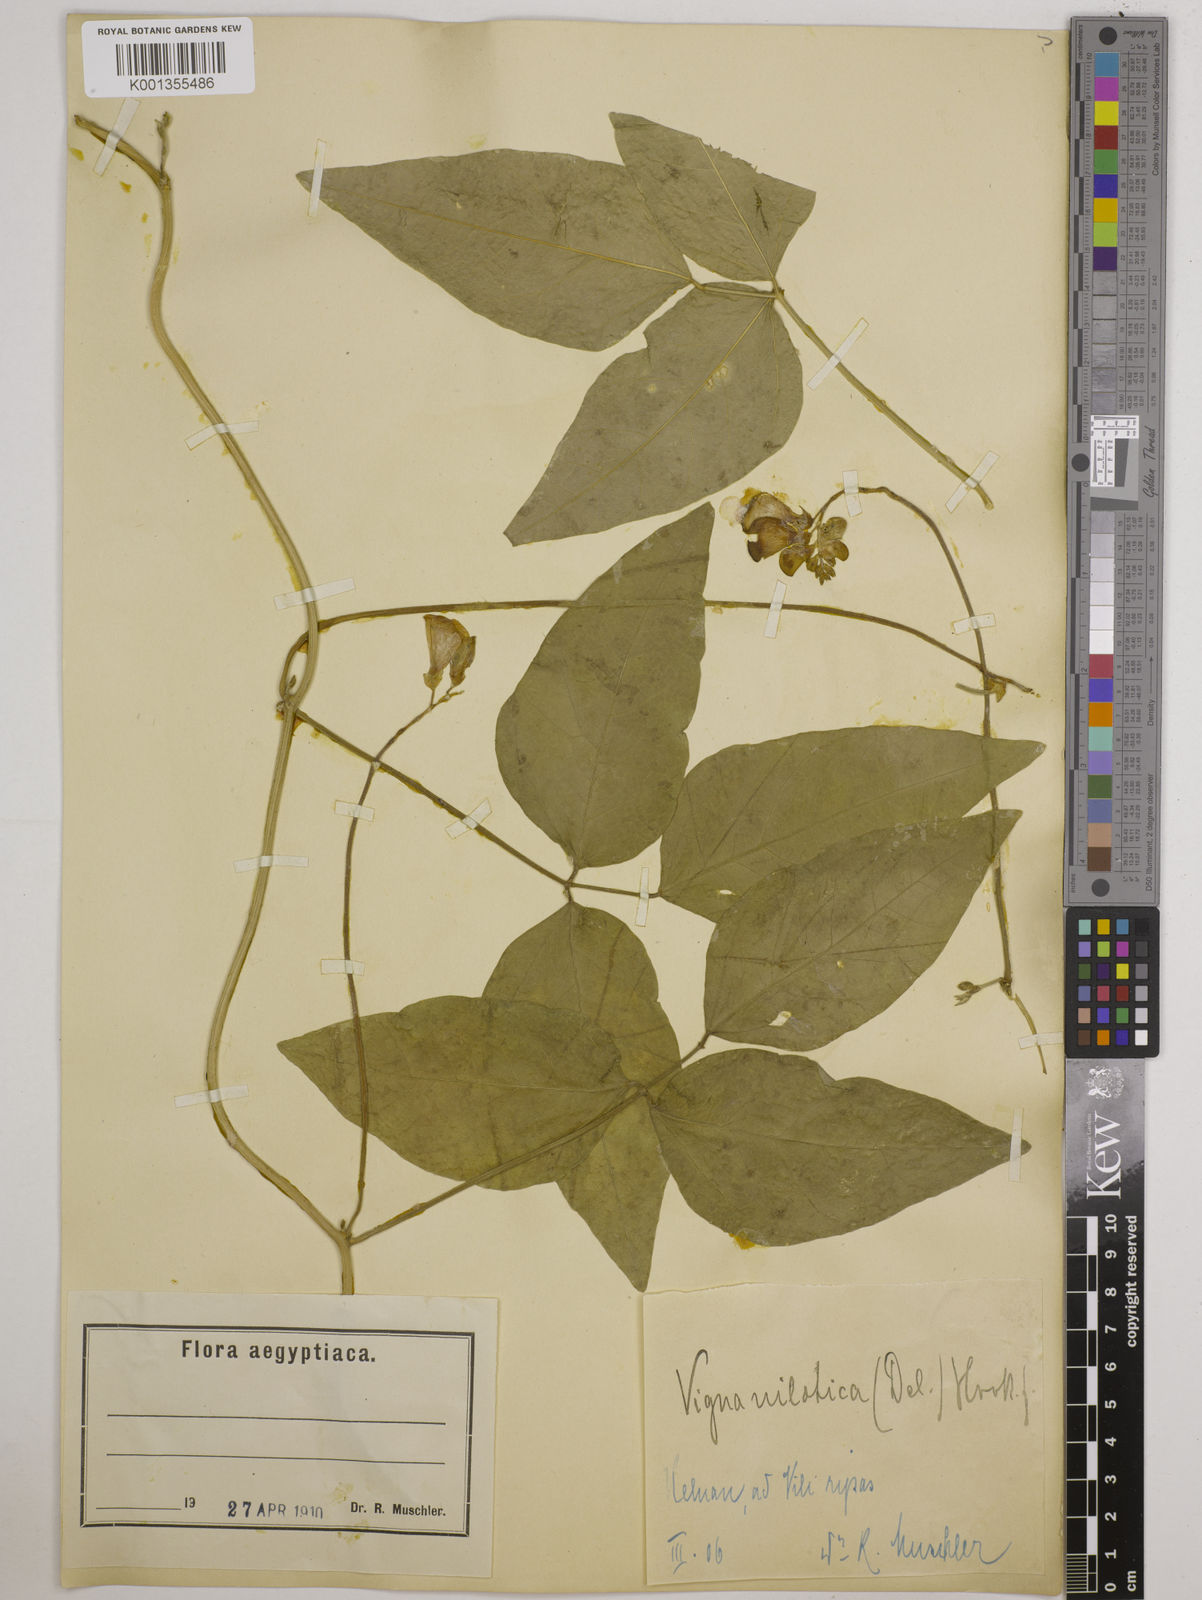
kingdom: Plantae
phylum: Tracheophyta
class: Magnoliopsida
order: Fabales
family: Fabaceae
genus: Vigna
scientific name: Vigna luteola
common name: Hairypod cowpea
